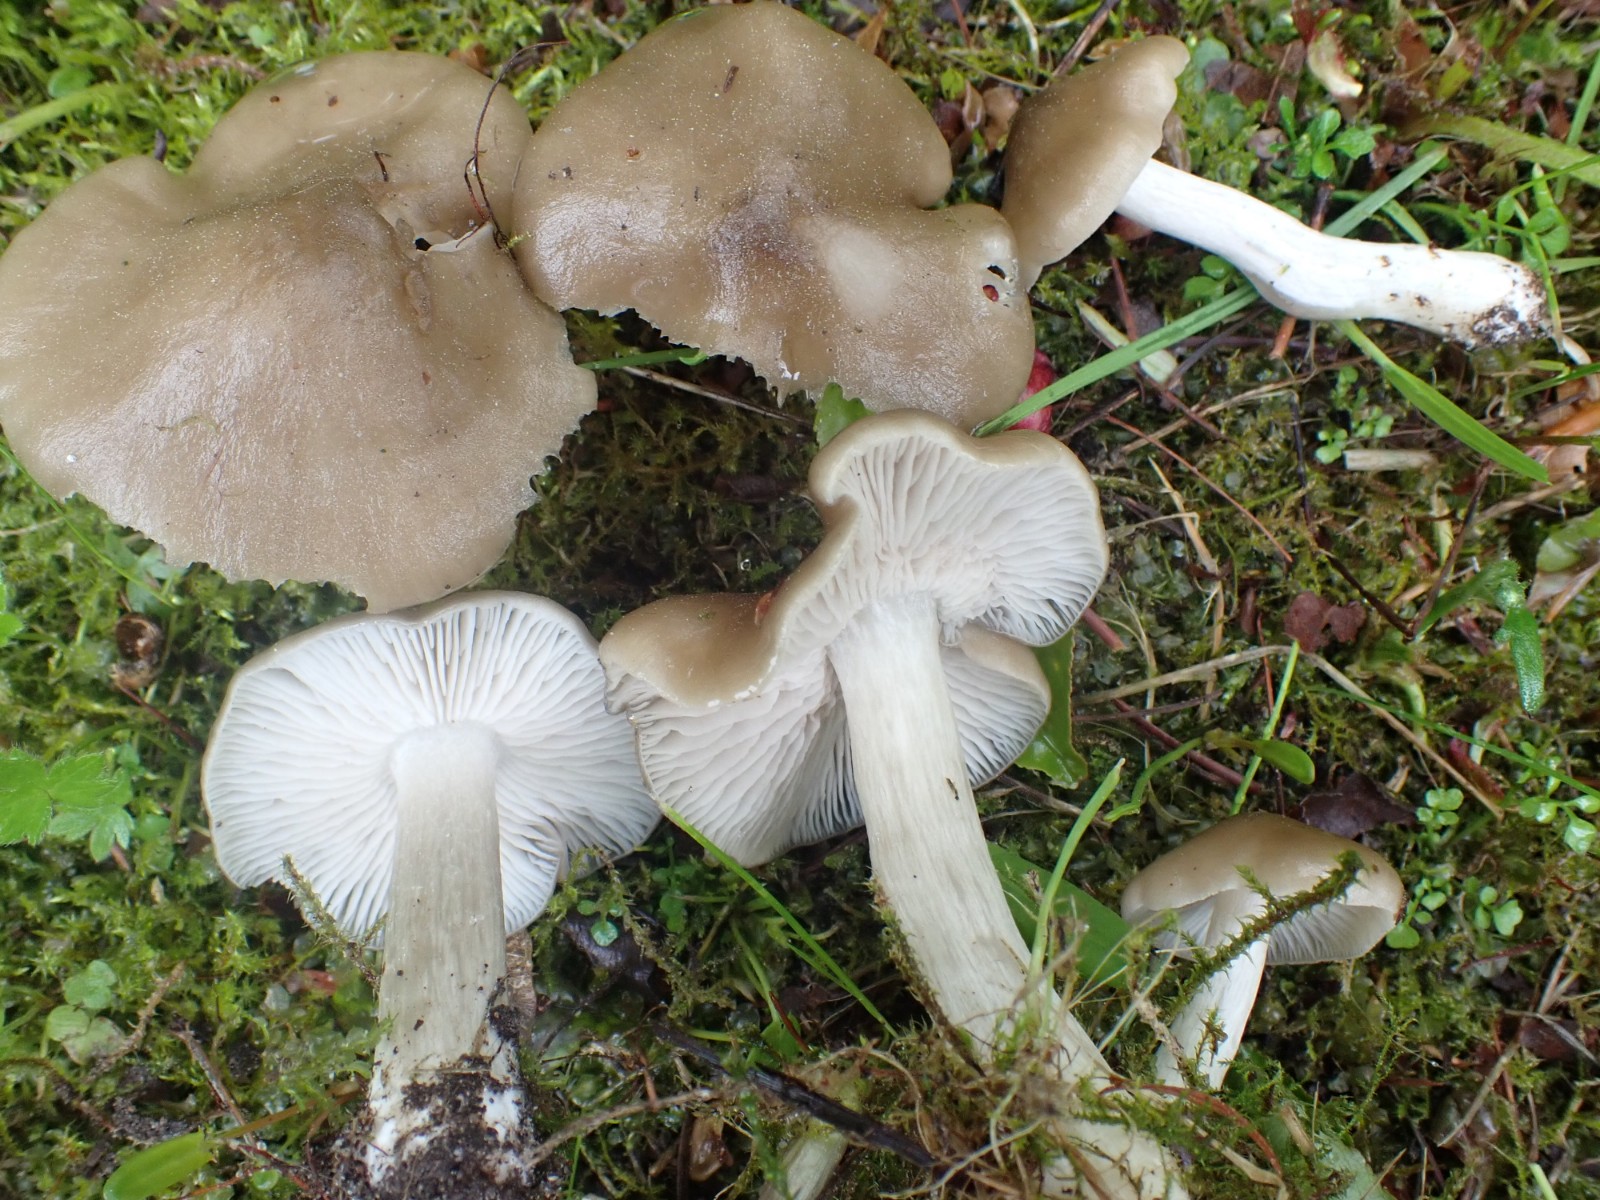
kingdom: Fungi
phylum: Basidiomycota
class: Agaricomycetes
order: Agaricales
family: Entolomataceae
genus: Entoloma
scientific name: Entoloma clypeatum
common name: flammet rødblad
